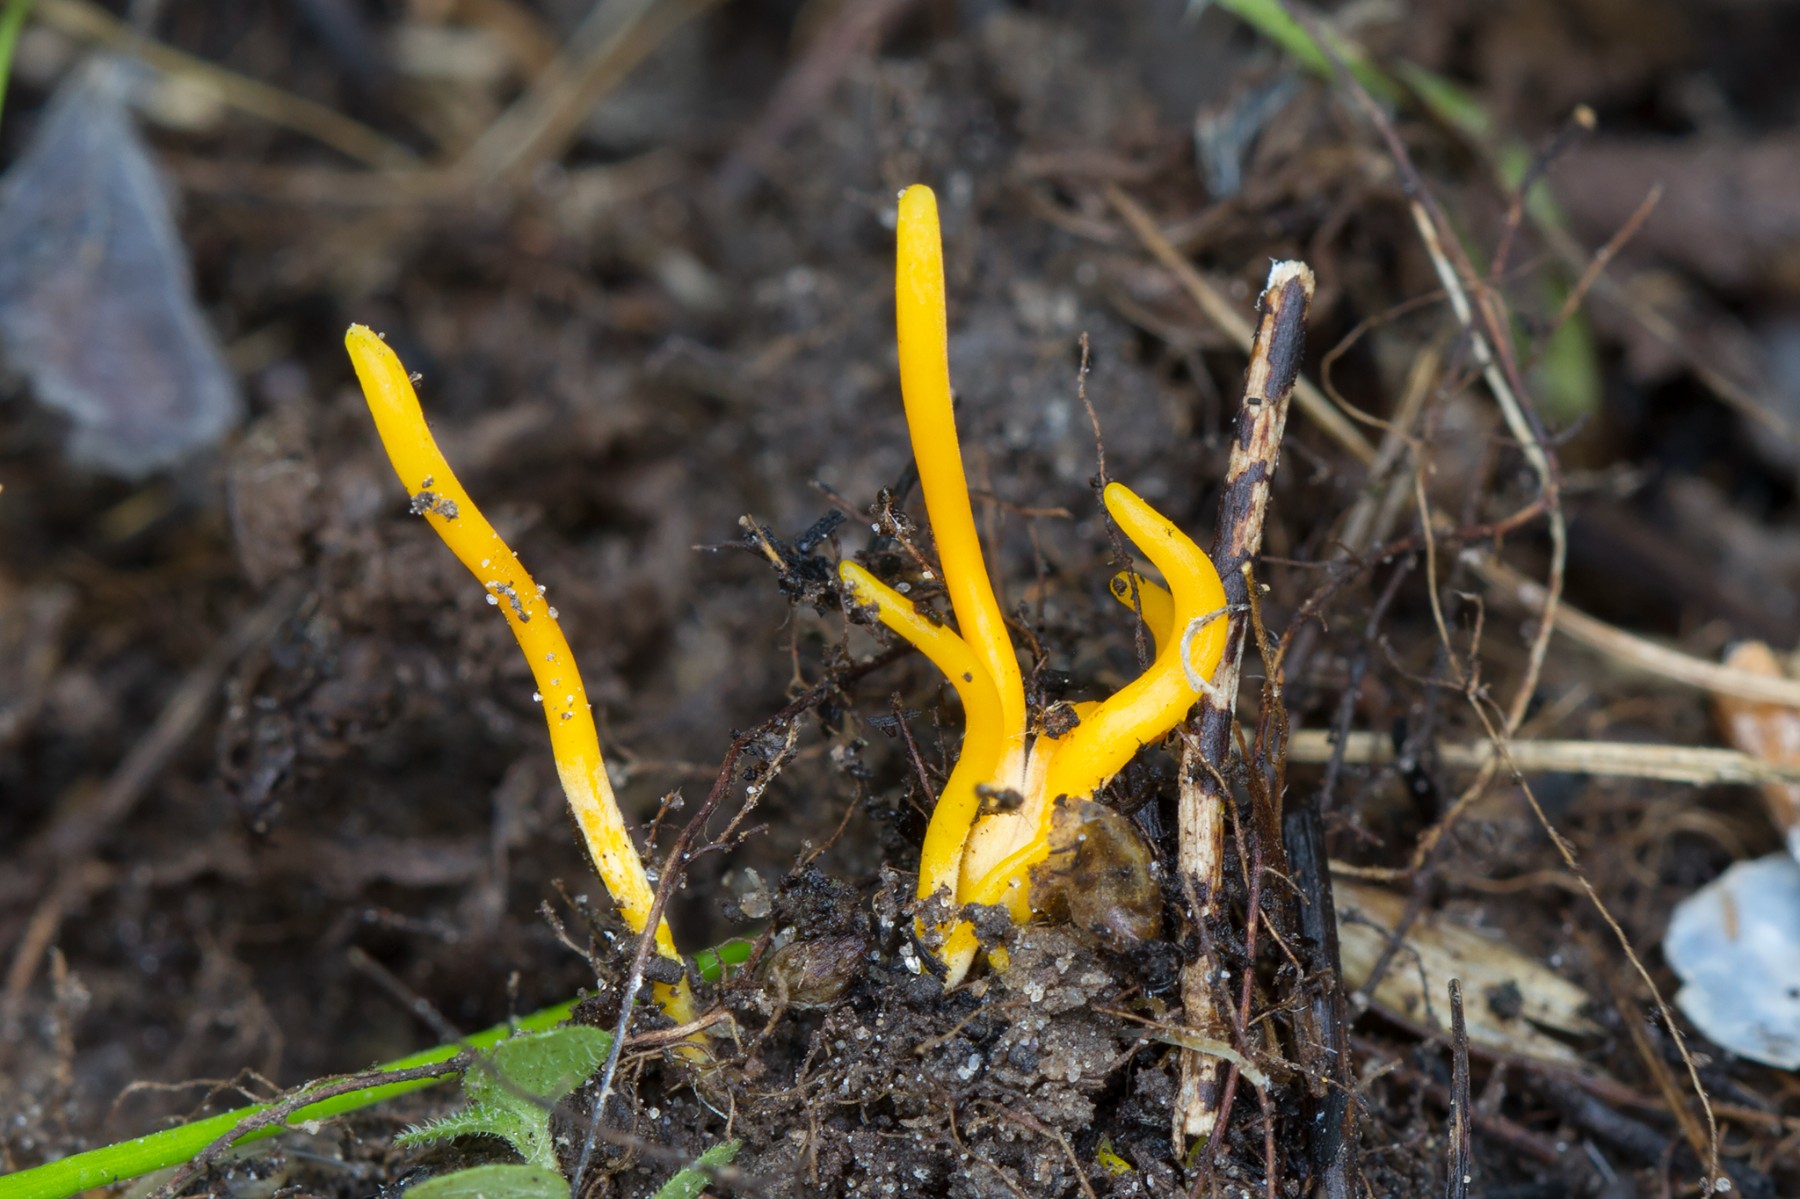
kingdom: Fungi
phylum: Basidiomycota
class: Agaricomycetes
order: Agaricales
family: Clavariaceae
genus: Clavulinopsis
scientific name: Clavulinopsis laeticolor
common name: flamme-køllesvamp
